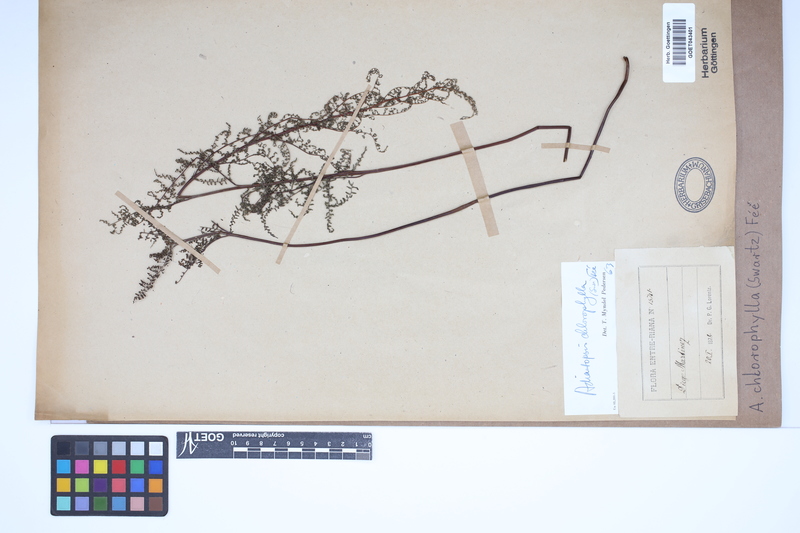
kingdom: Plantae
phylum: Tracheophyta
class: Polypodiopsida
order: Polypodiales
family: Pteridaceae
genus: Adiantopsis
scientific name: Adiantopsis chlorophylla
